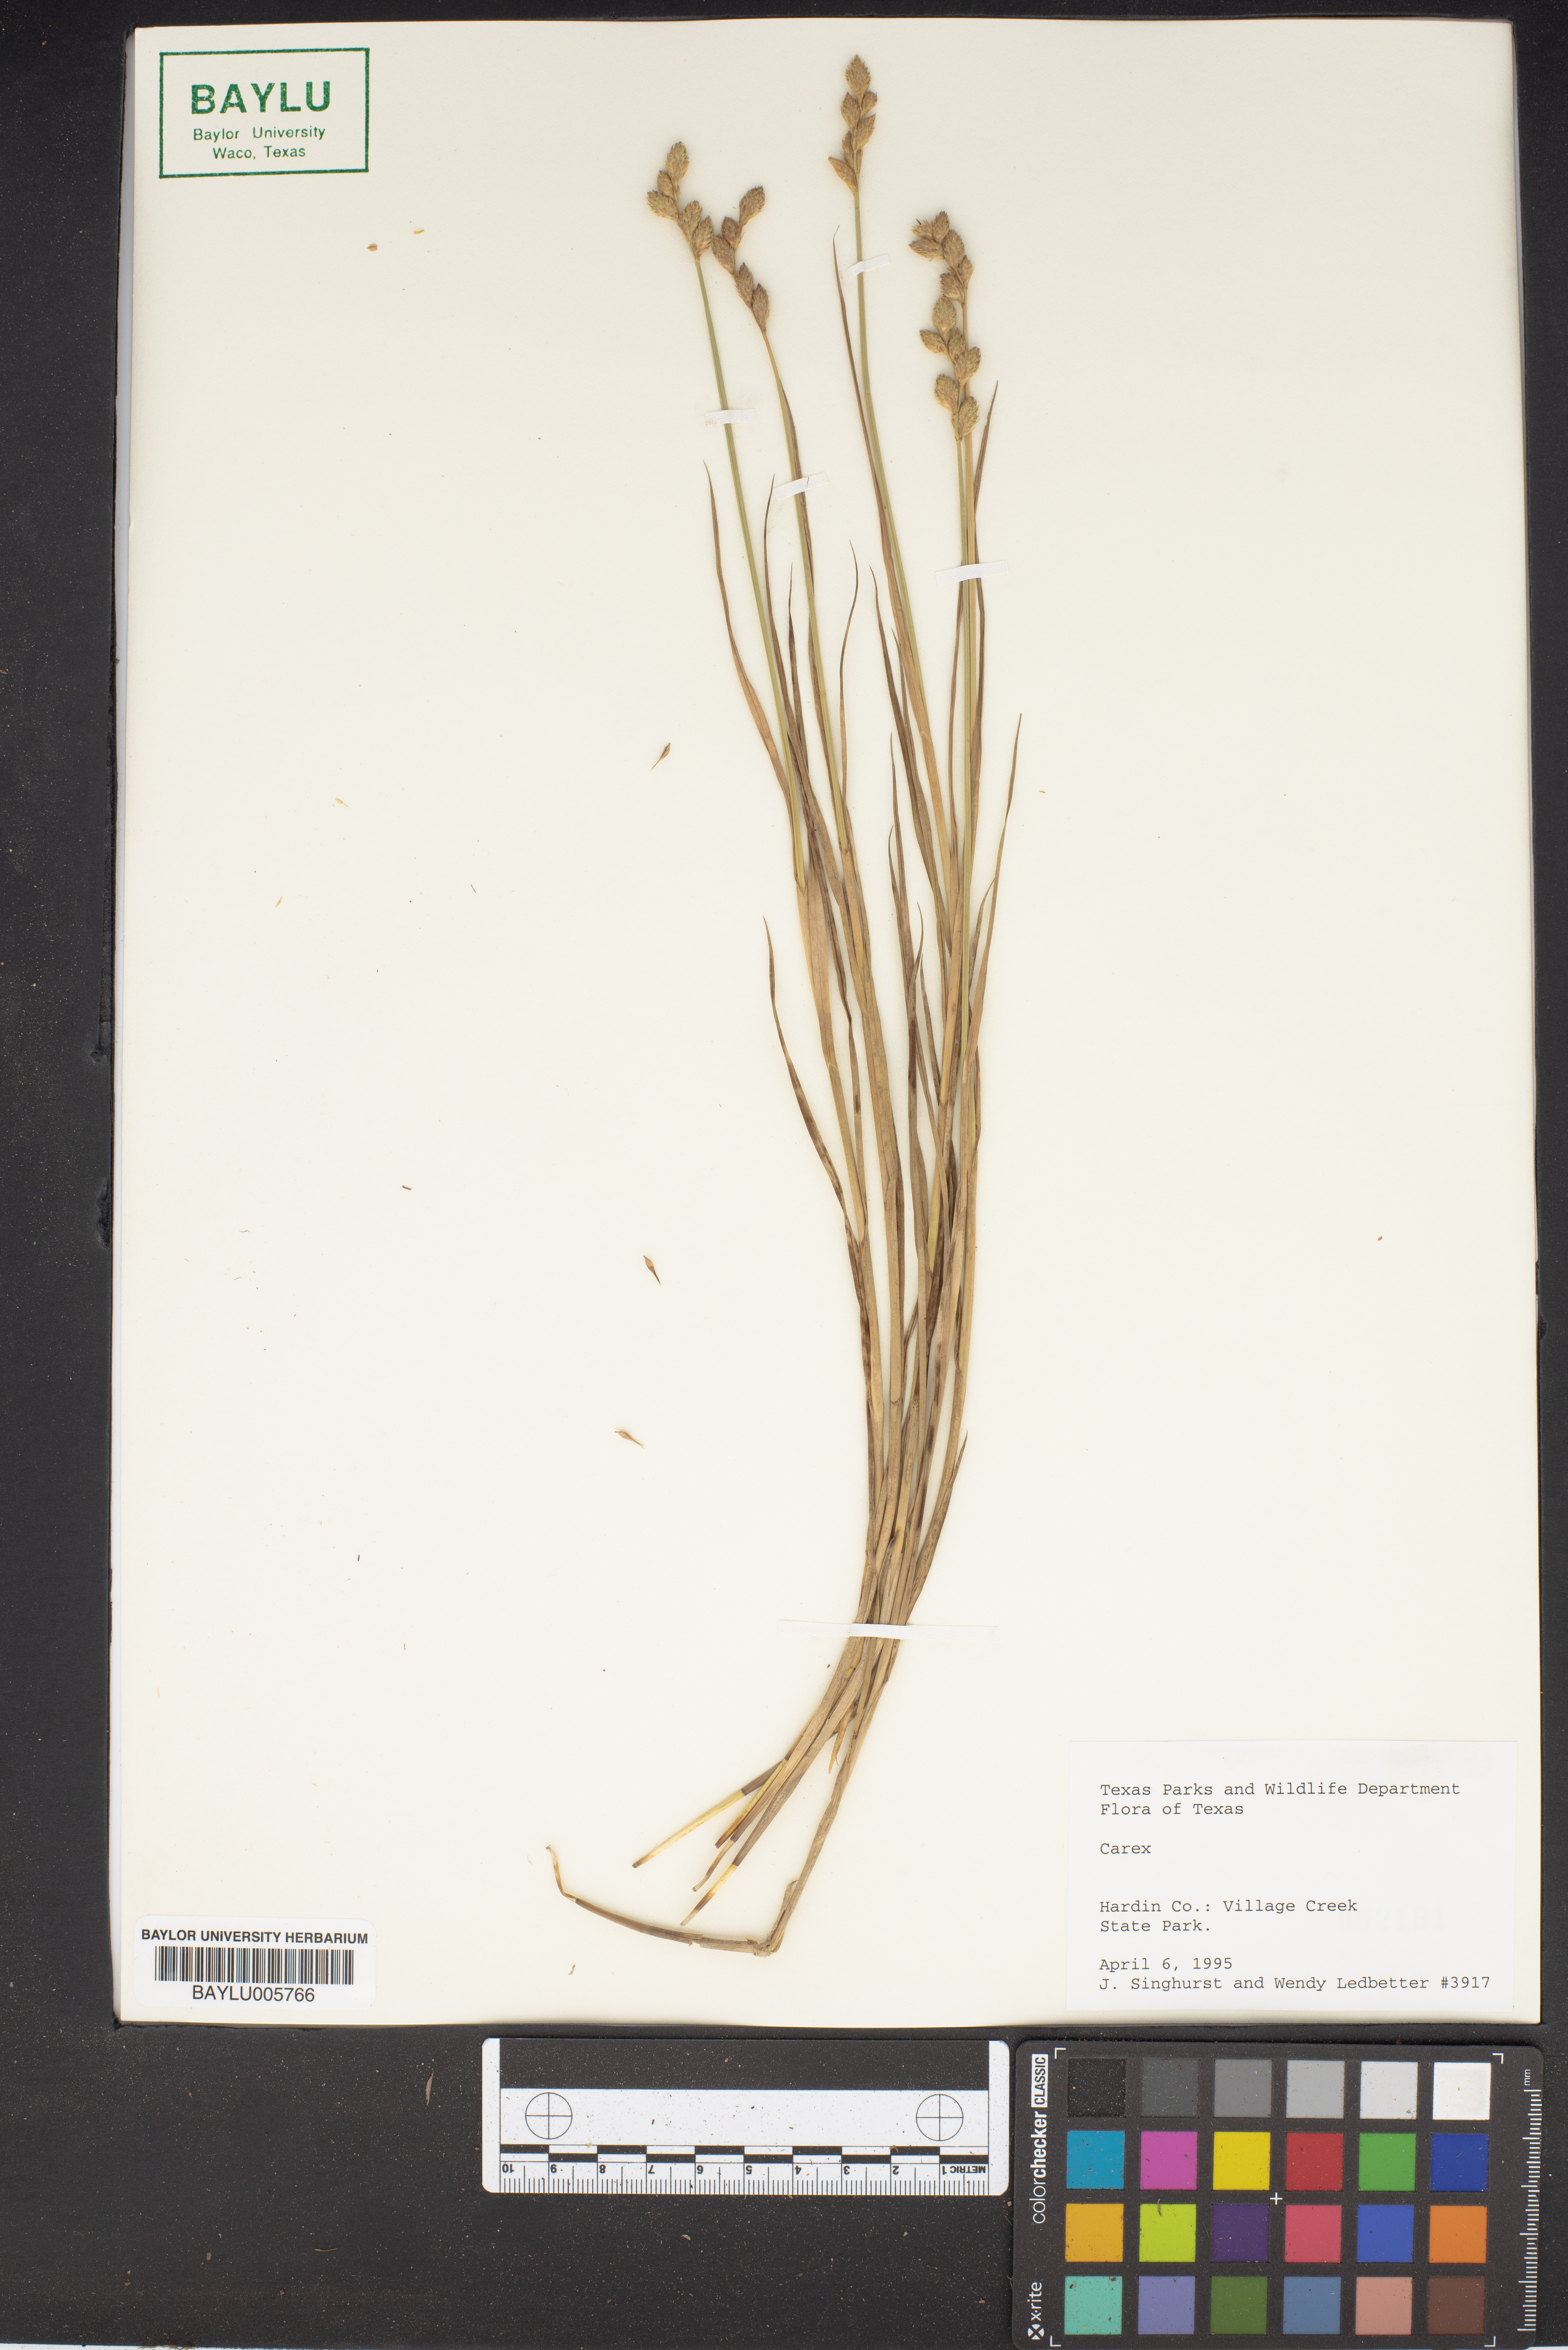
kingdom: Plantae
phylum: Tracheophyta
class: Liliopsida
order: Poales
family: Cyperaceae
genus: Carex
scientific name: Carex
